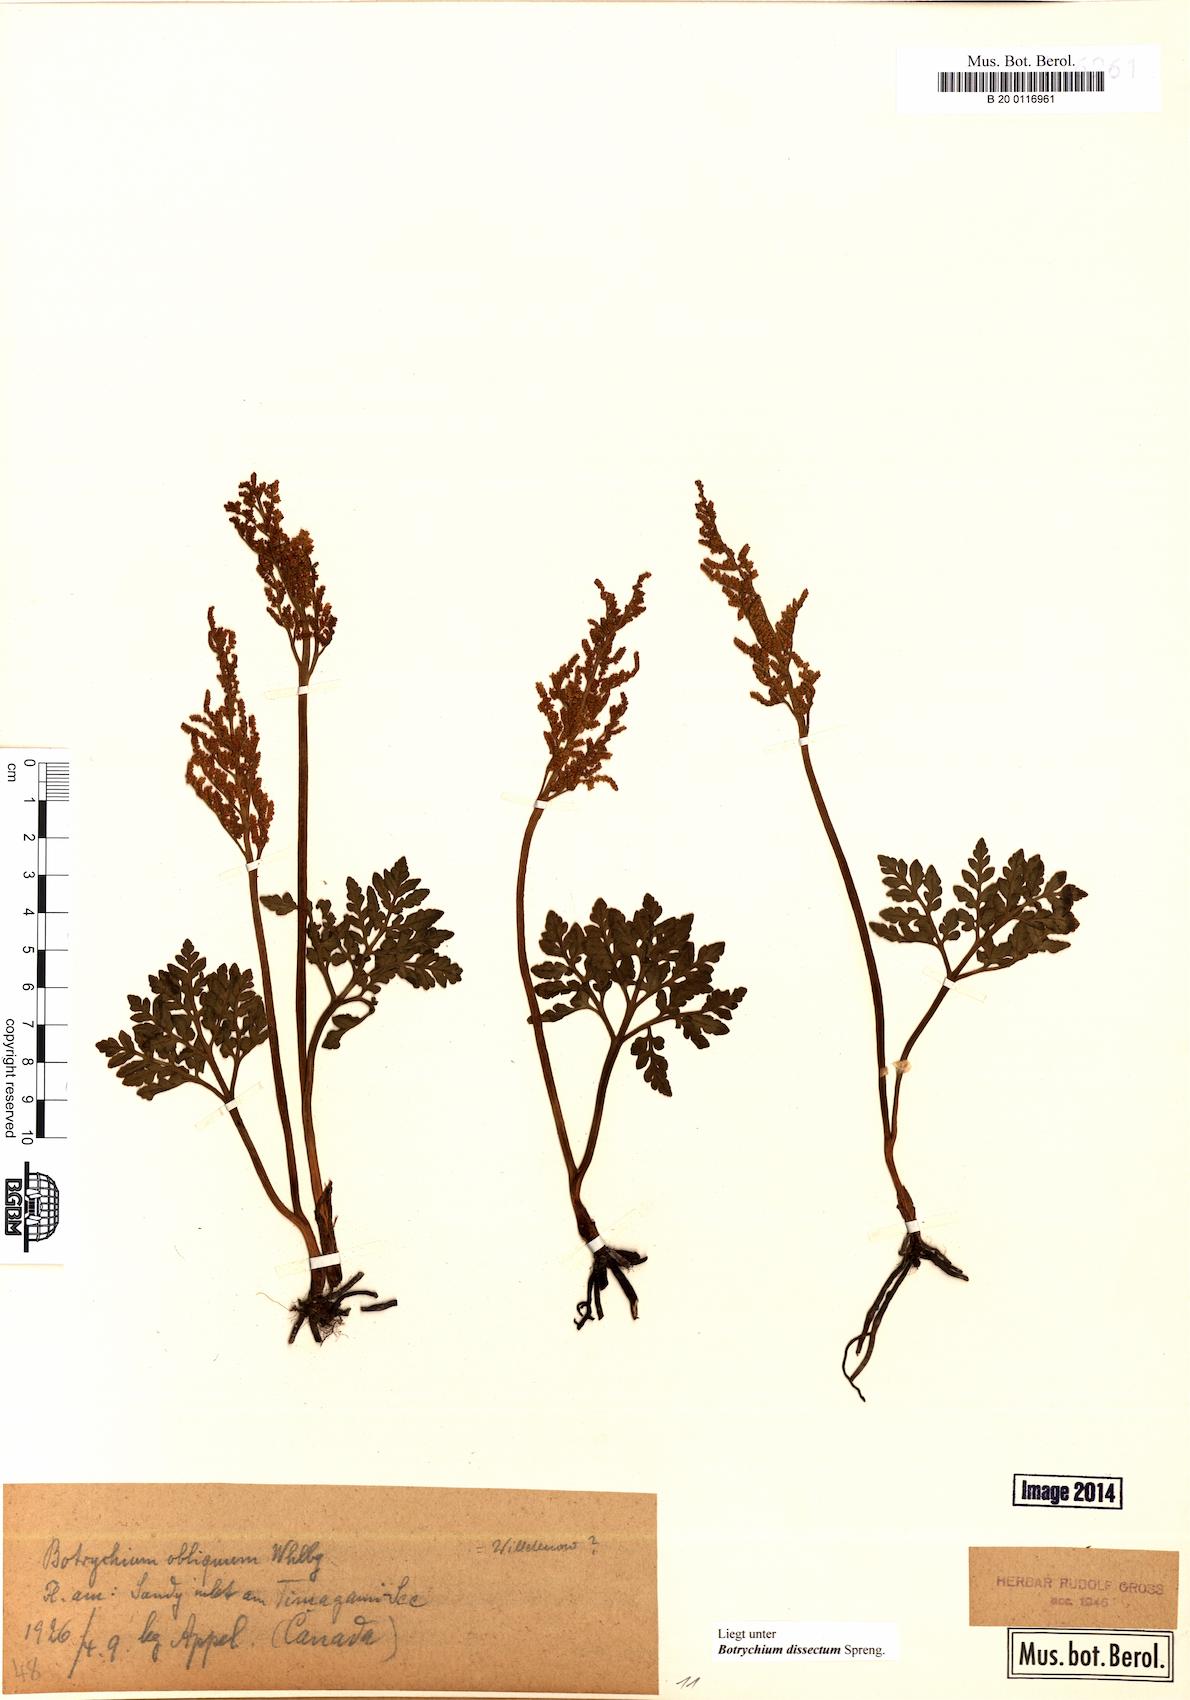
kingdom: Plantae
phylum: Tracheophyta
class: Polypodiopsida
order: Ophioglossales
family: Ophioglossaceae
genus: Sceptridium
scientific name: Sceptridium dissectum
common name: Cut-leaved grapefern
